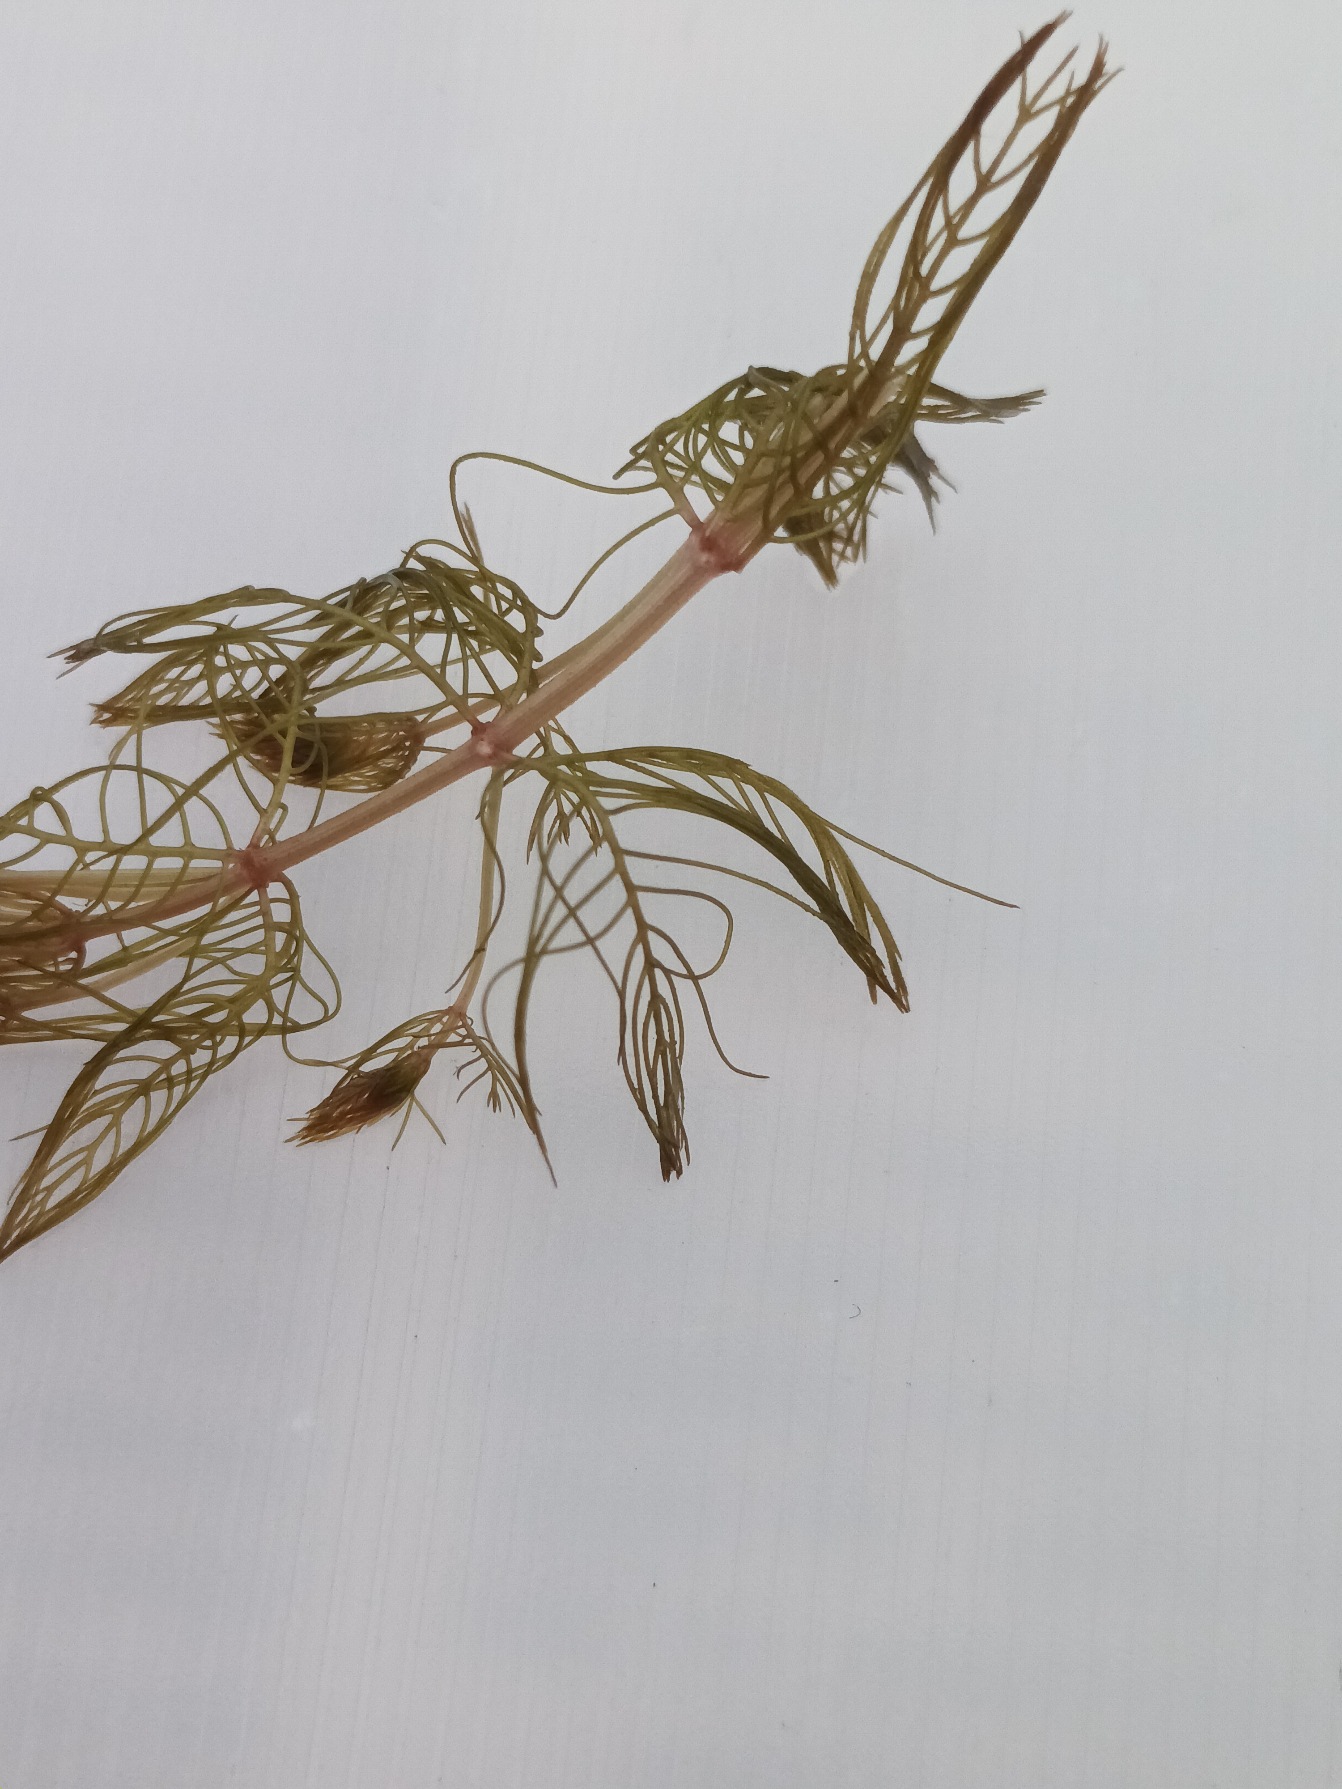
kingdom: Plantae
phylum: Tracheophyta
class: Magnoliopsida
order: Saxifragales
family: Haloragaceae
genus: Myriophyllum
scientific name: Myriophyllum spicatum
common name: Aks-tusindblad
